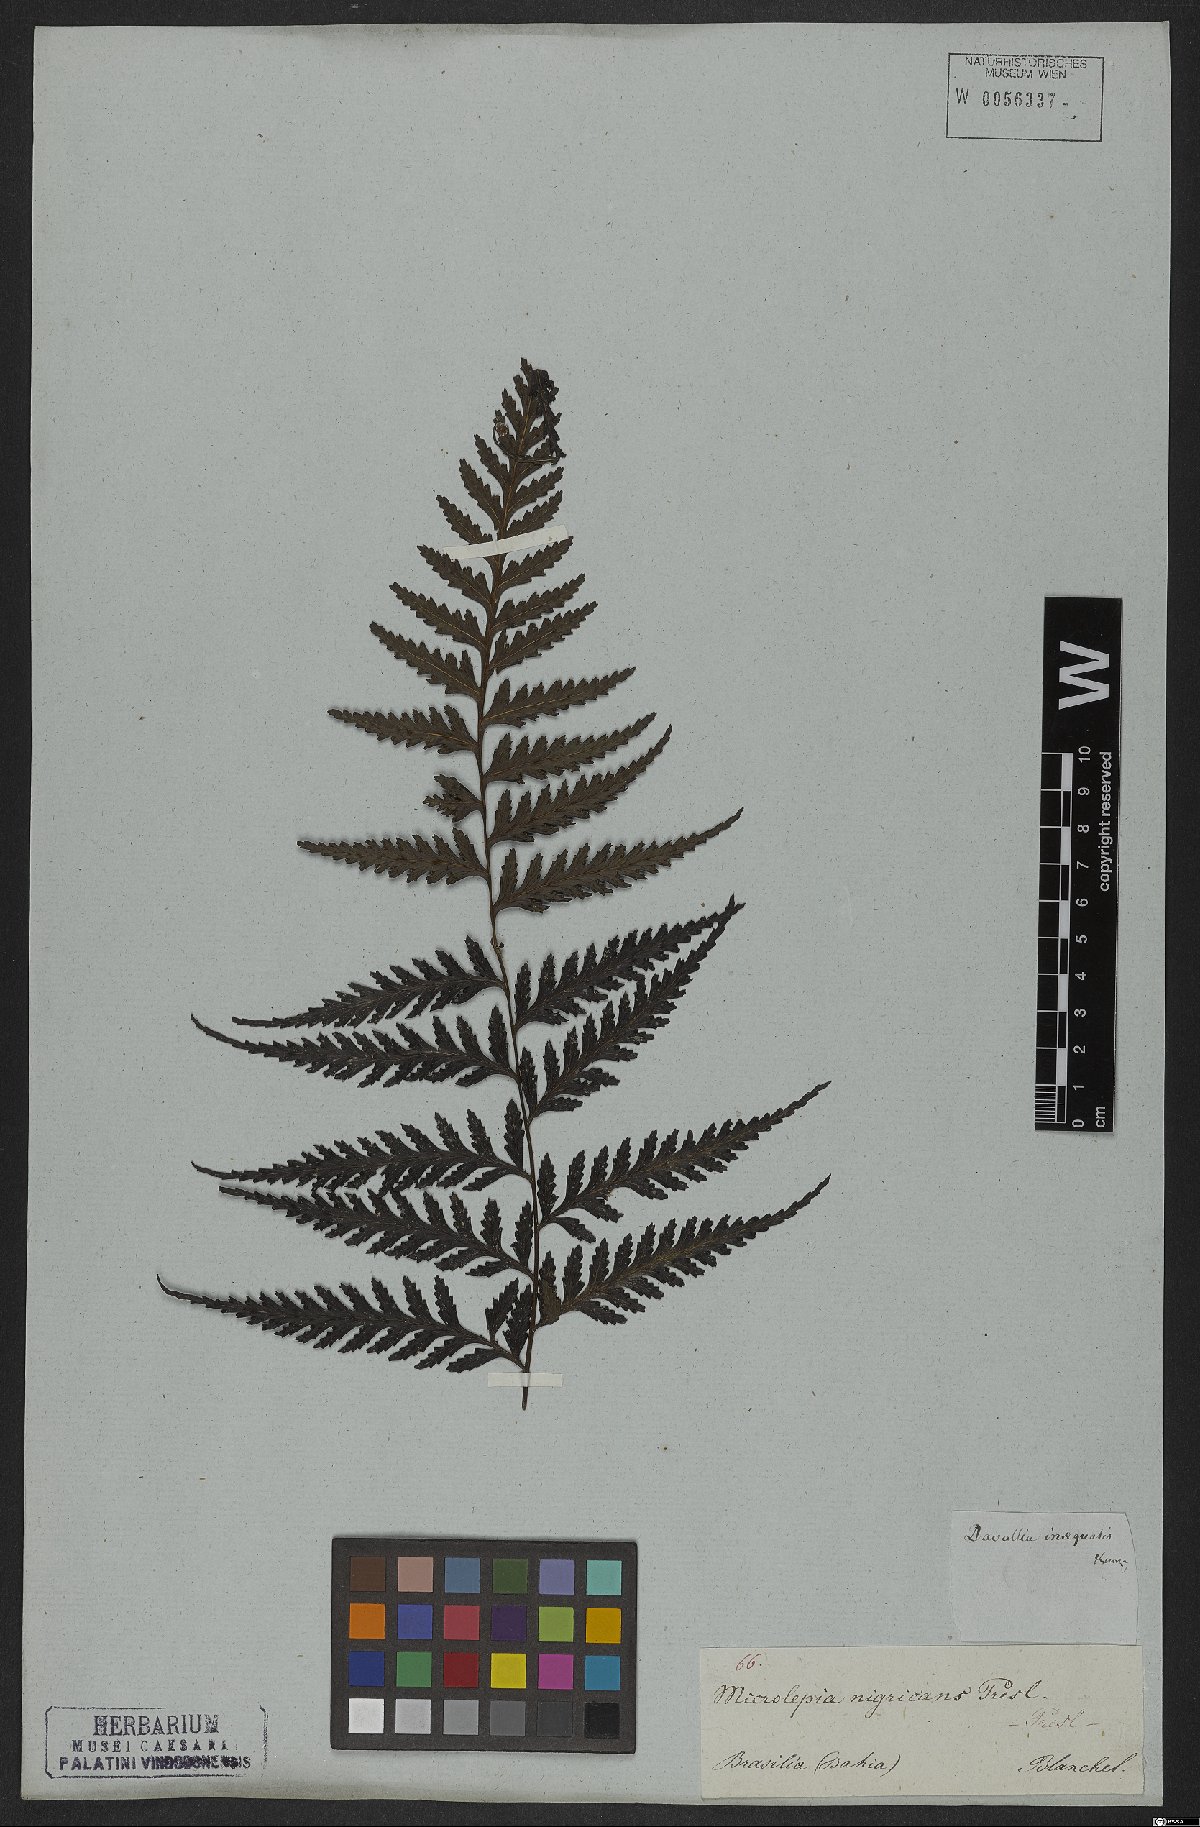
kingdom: Plantae
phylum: Tracheophyta
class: Polypodiopsida
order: Polypodiales
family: Saccolomataceae
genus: Saccoloma
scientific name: Saccoloma inaequale
